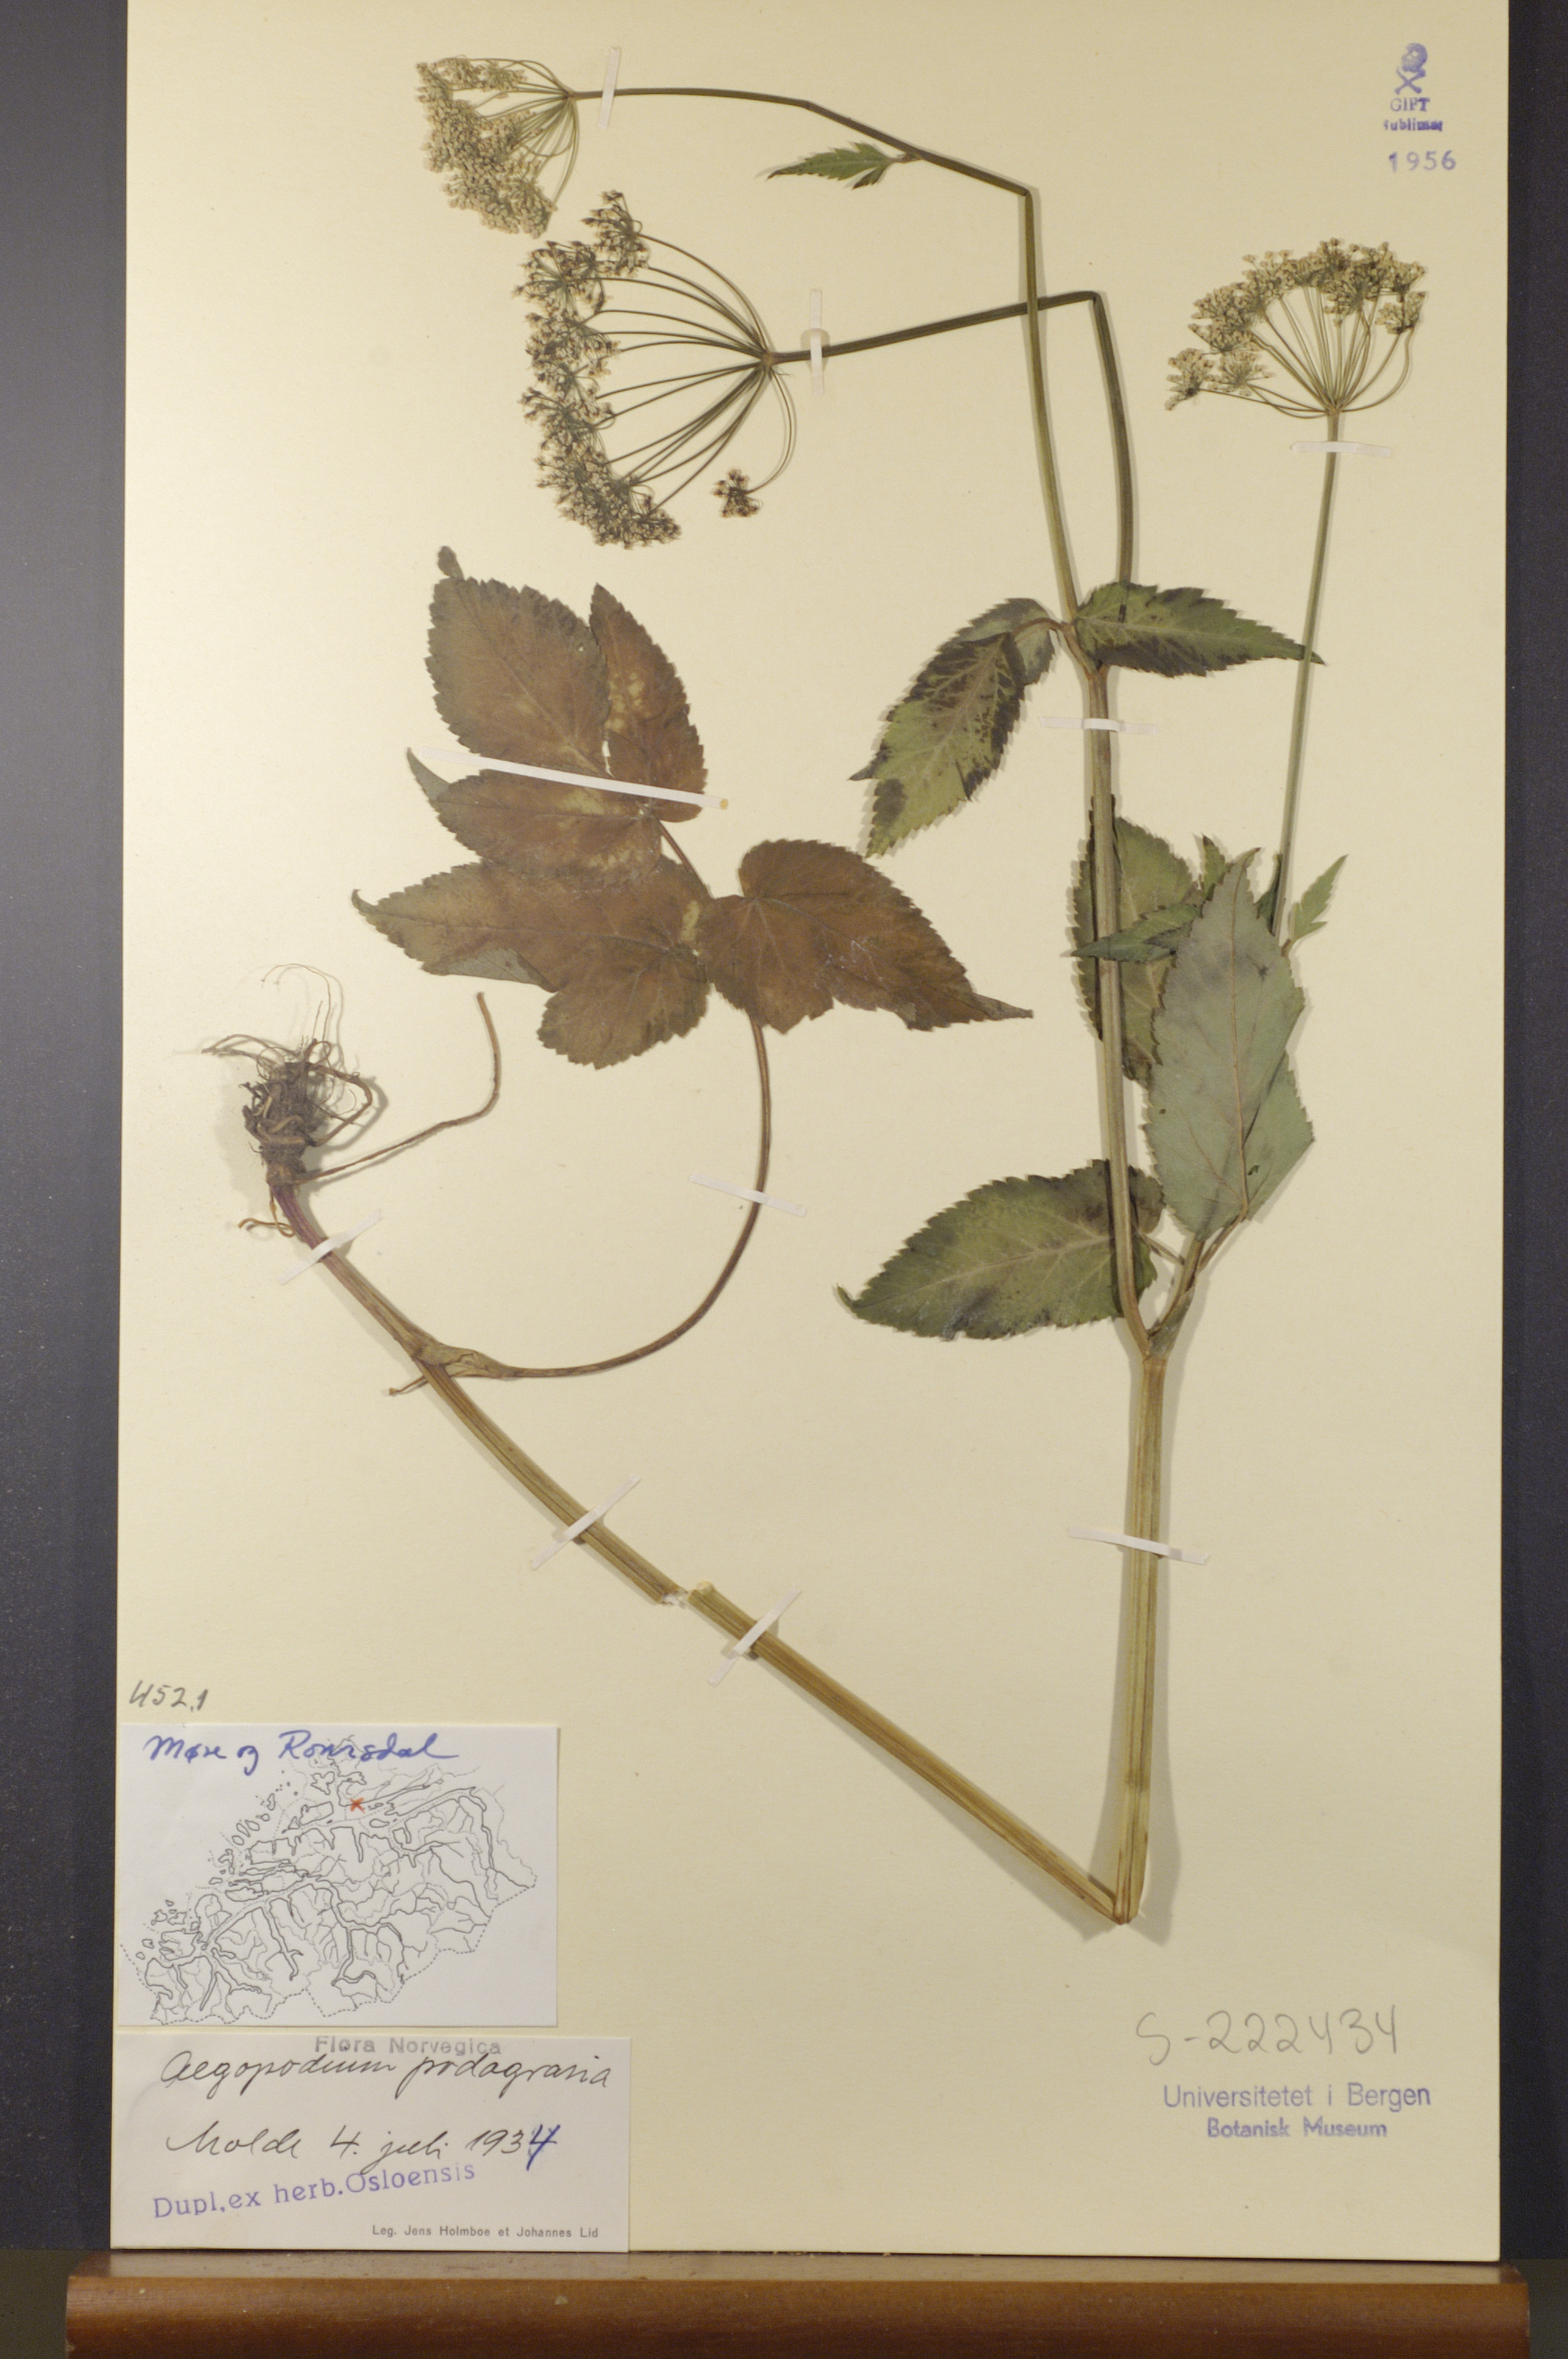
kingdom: Plantae
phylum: Tracheophyta
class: Magnoliopsida
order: Apiales
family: Apiaceae
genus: Aegopodium
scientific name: Aegopodium podagraria
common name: Ground-elder
